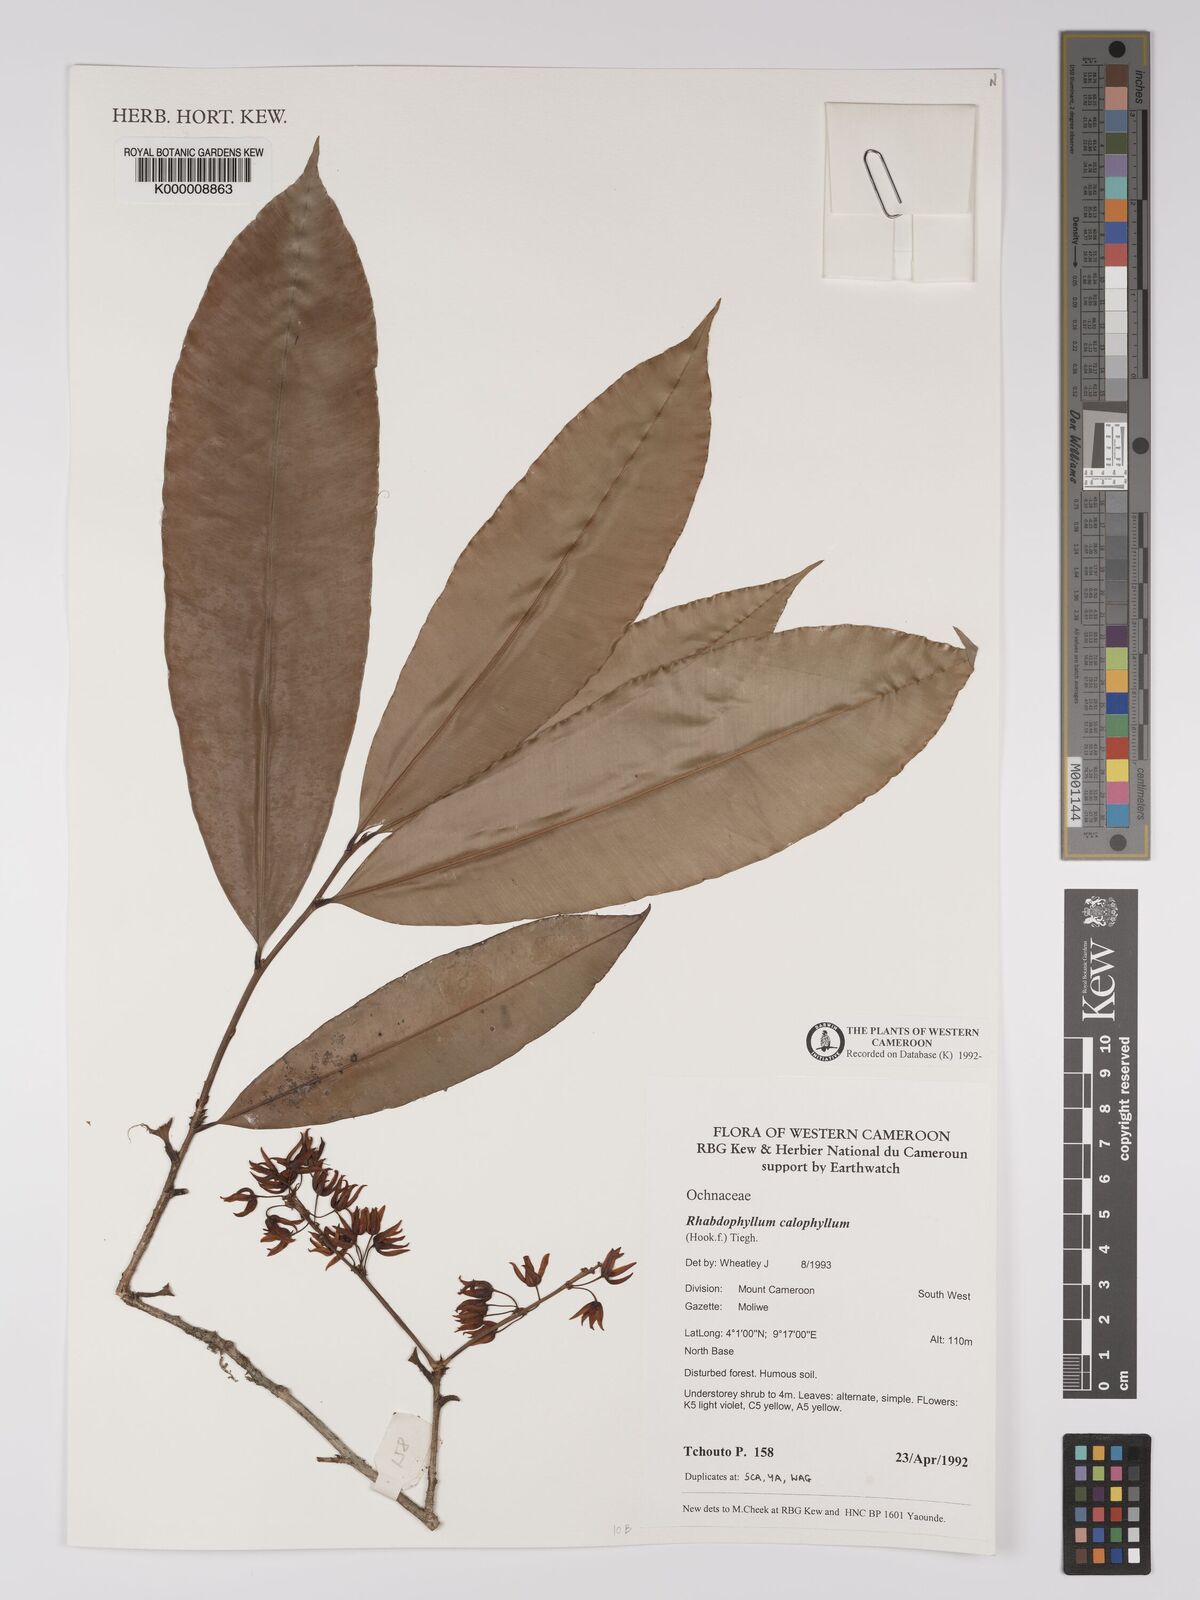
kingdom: Plantae
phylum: Tracheophyta
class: Magnoliopsida
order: Malpighiales
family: Ochnaceae
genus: Rhabdophyllum
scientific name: Rhabdophyllum calophyllum
